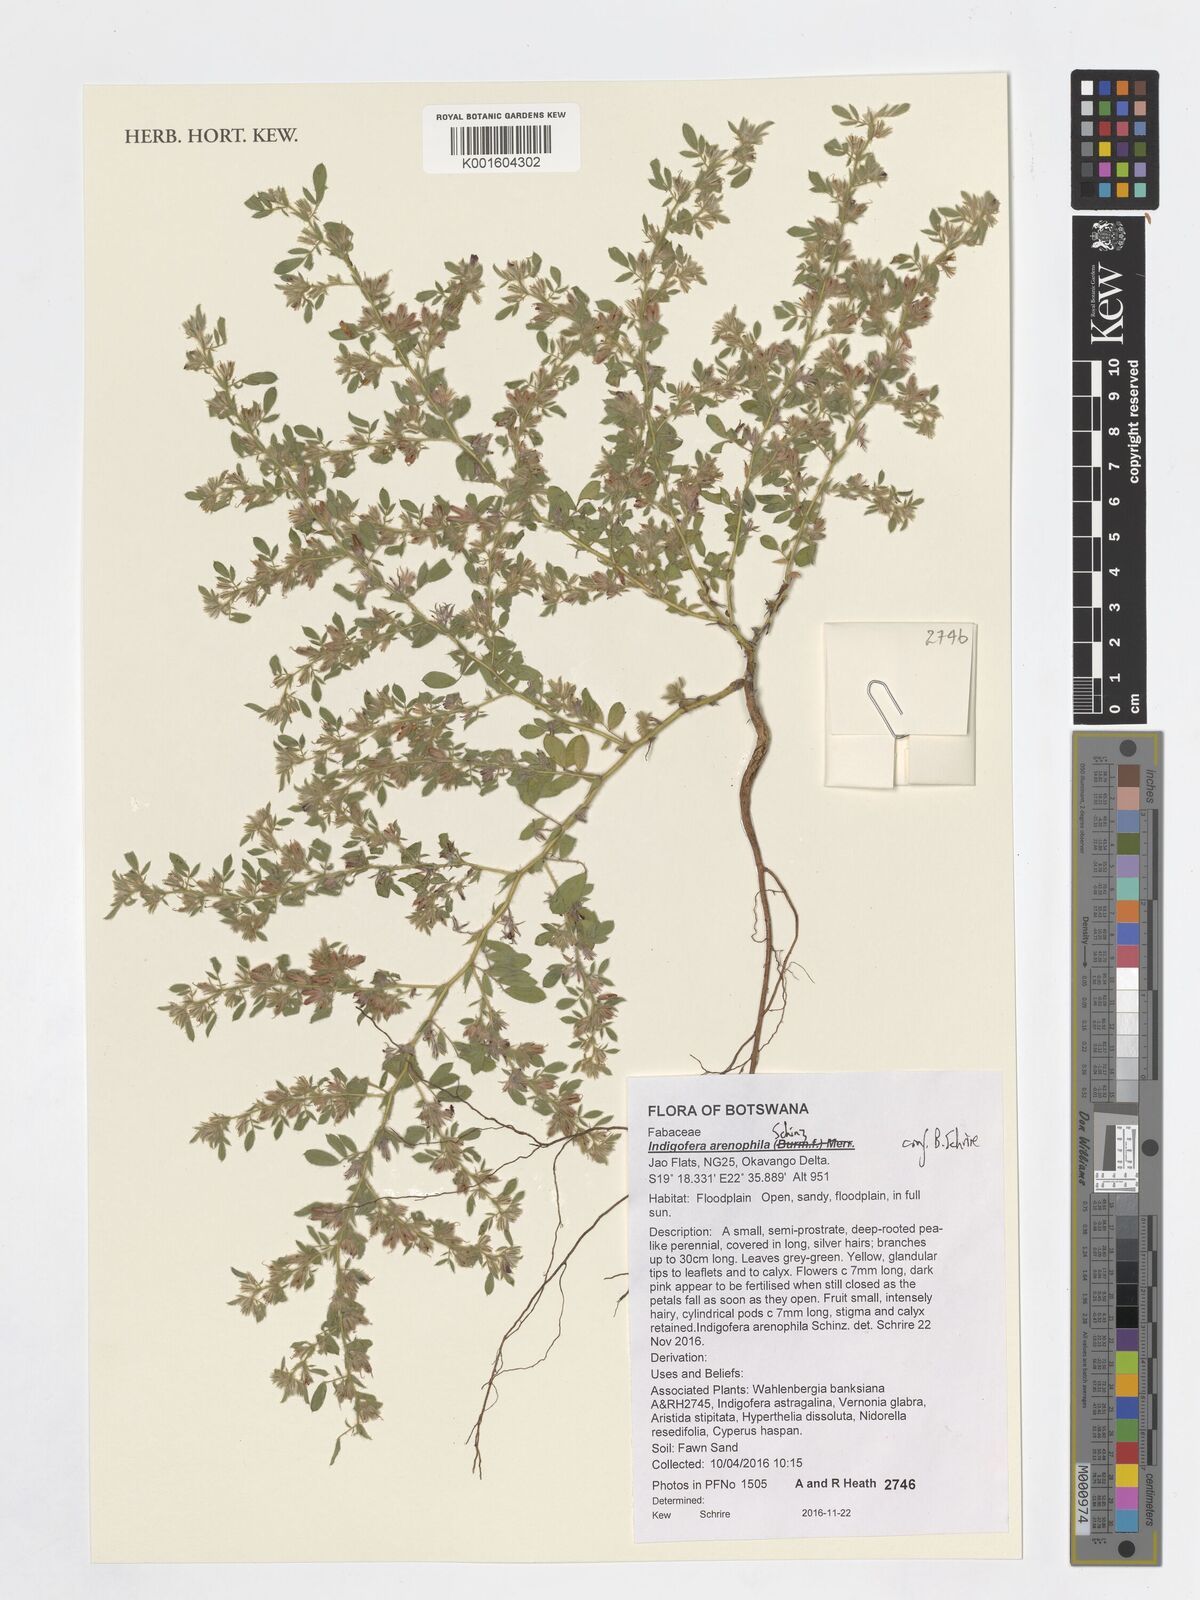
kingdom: Plantae
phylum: Tracheophyta
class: Magnoliopsida
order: Fabales
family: Fabaceae
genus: Indigofera
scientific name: Indigofera arenophila
